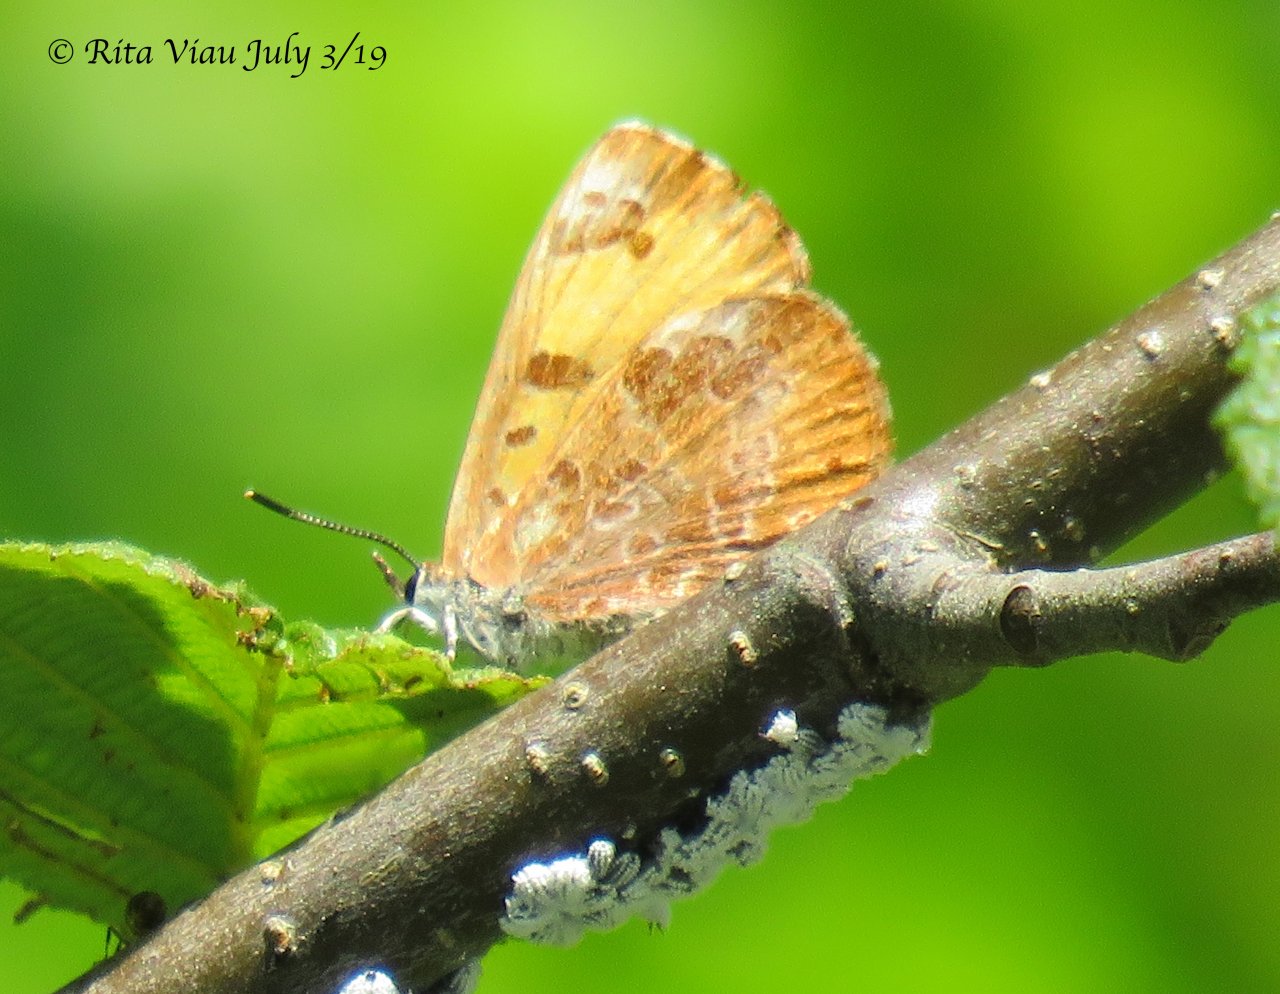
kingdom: Animalia
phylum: Arthropoda
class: Insecta
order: Lepidoptera
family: Lycaenidae
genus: Feniseca
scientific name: Feniseca tarquinius
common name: Harvester
